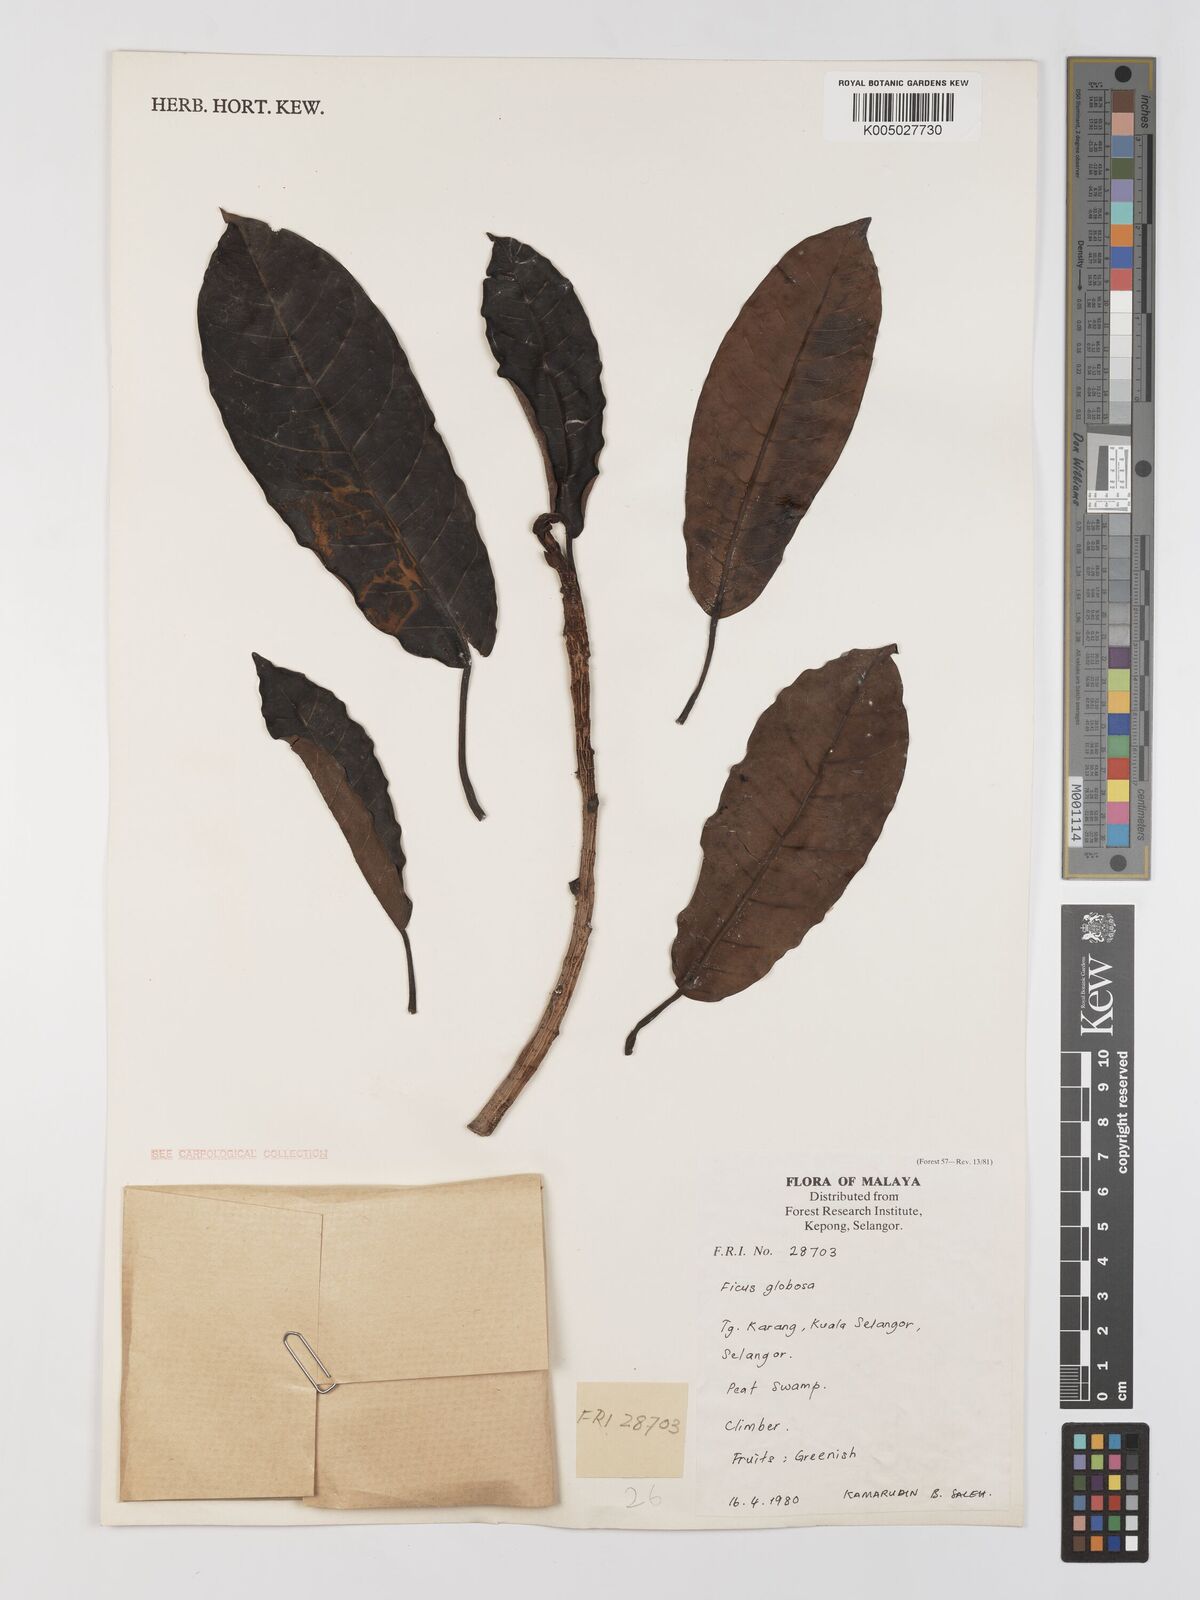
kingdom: Plantae
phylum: Tracheophyta
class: Magnoliopsida
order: Rosales
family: Moraceae
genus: Ficus
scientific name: Ficus
